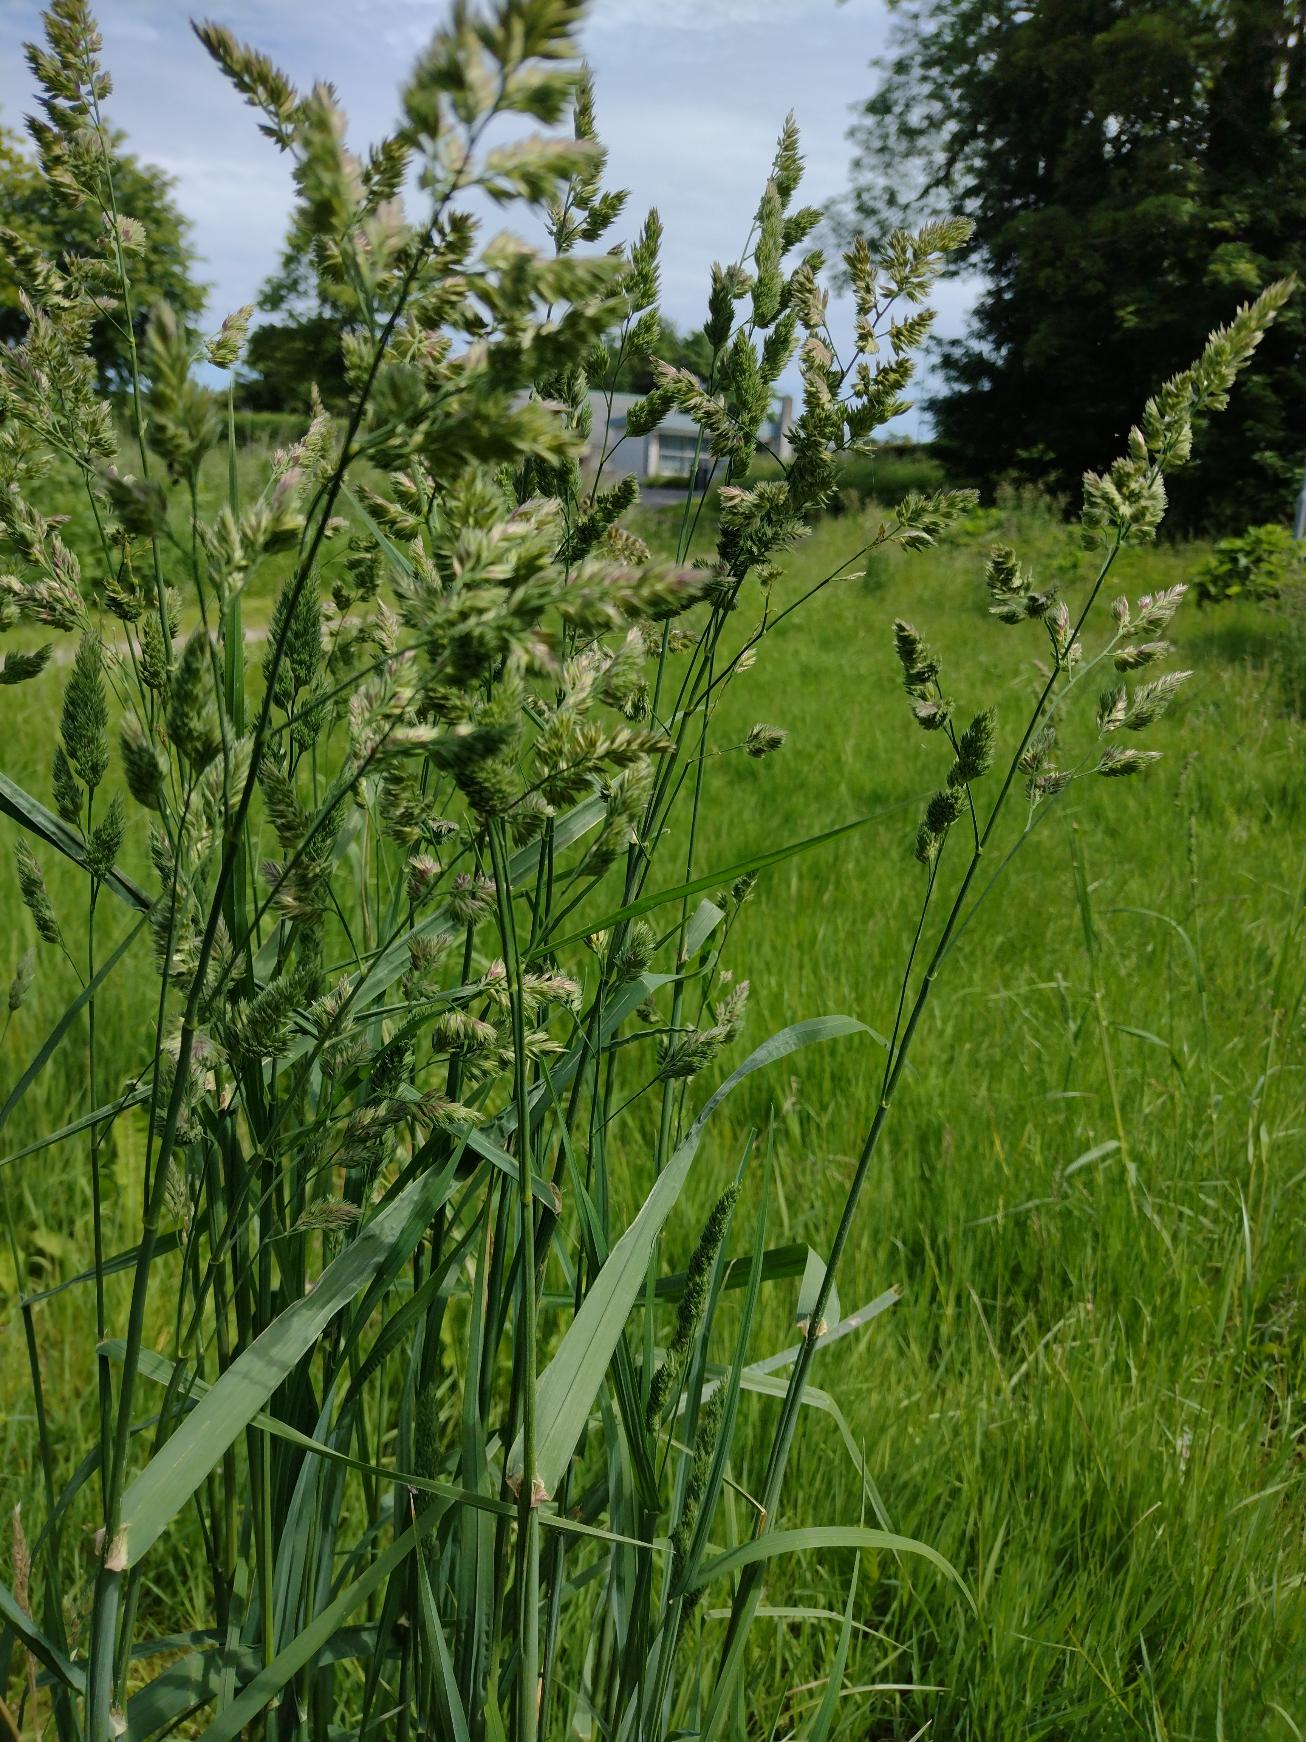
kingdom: Plantae
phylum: Tracheophyta
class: Liliopsida
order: Poales
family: Poaceae
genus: Dactylis
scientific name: Dactylis glomerata
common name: Almindelig hundegræs
